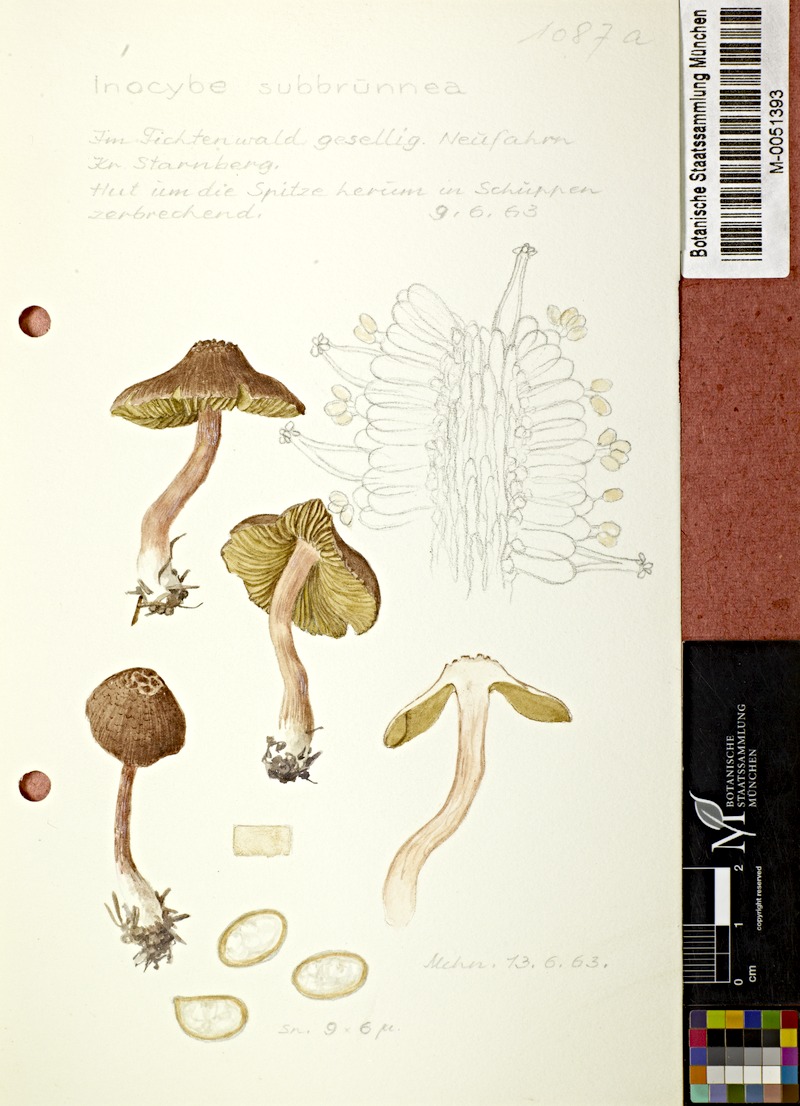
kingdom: Fungi
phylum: Basidiomycota
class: Agaricomycetes
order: Agaricales
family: Inocybaceae
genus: Inocybe
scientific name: Inocybe catalaunica
